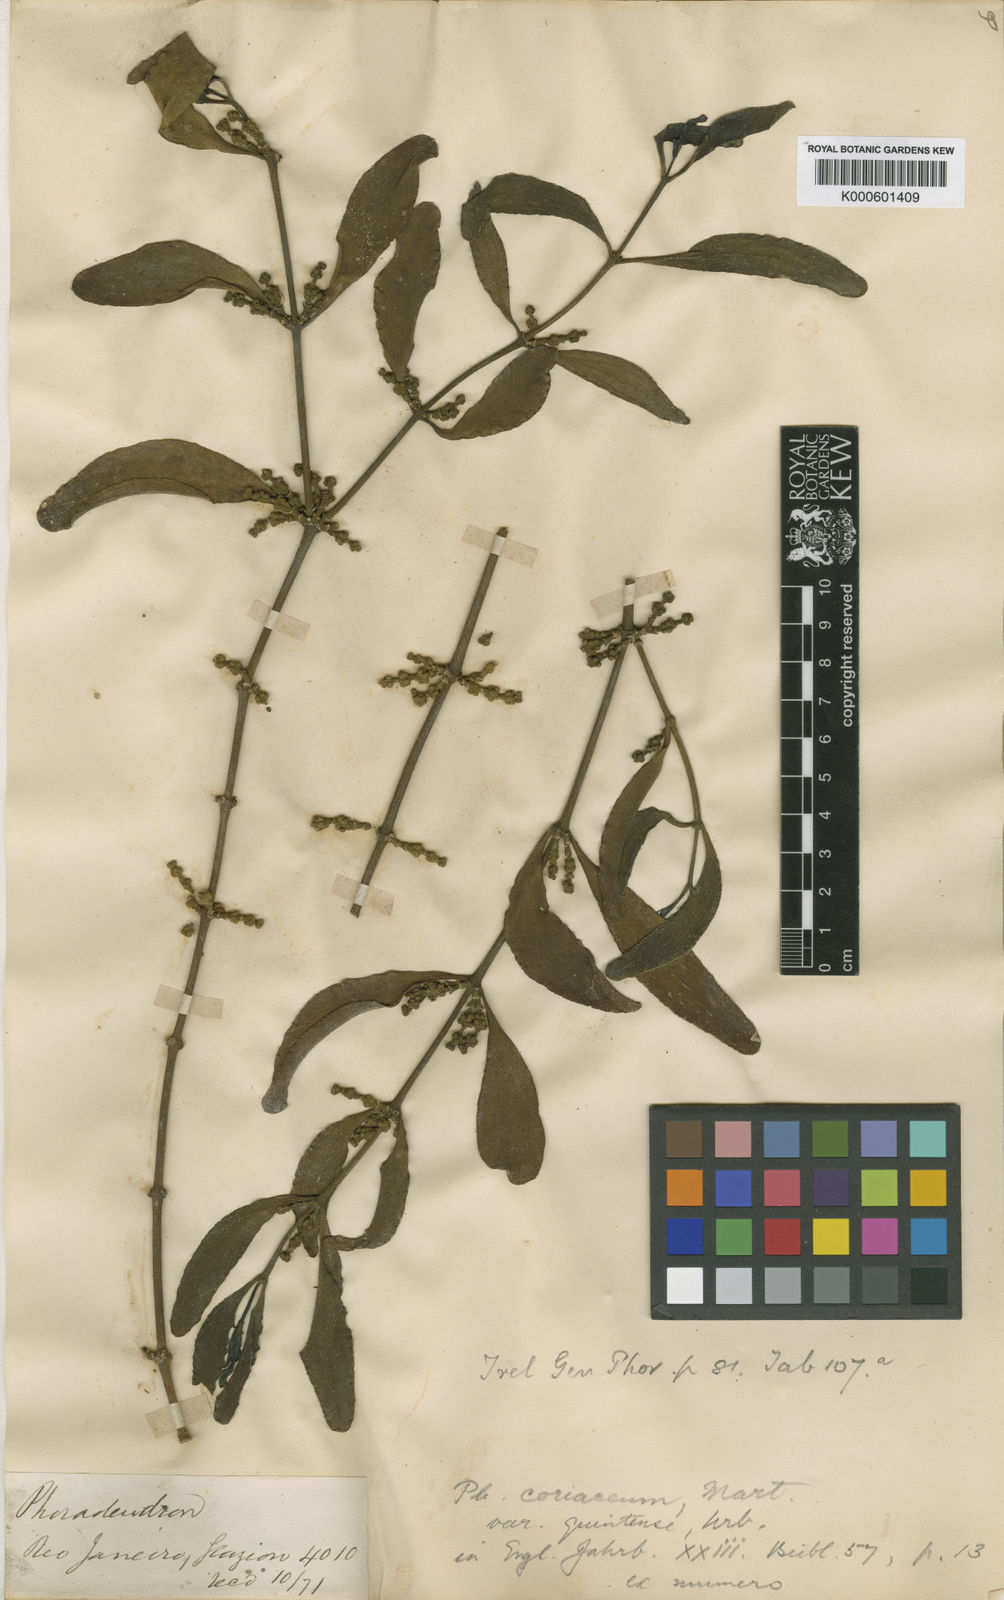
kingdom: Plantae
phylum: Tracheophyta
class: Magnoliopsida
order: Santalales
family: Viscaceae
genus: Phoradendron
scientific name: Phoradendron coriaceum
